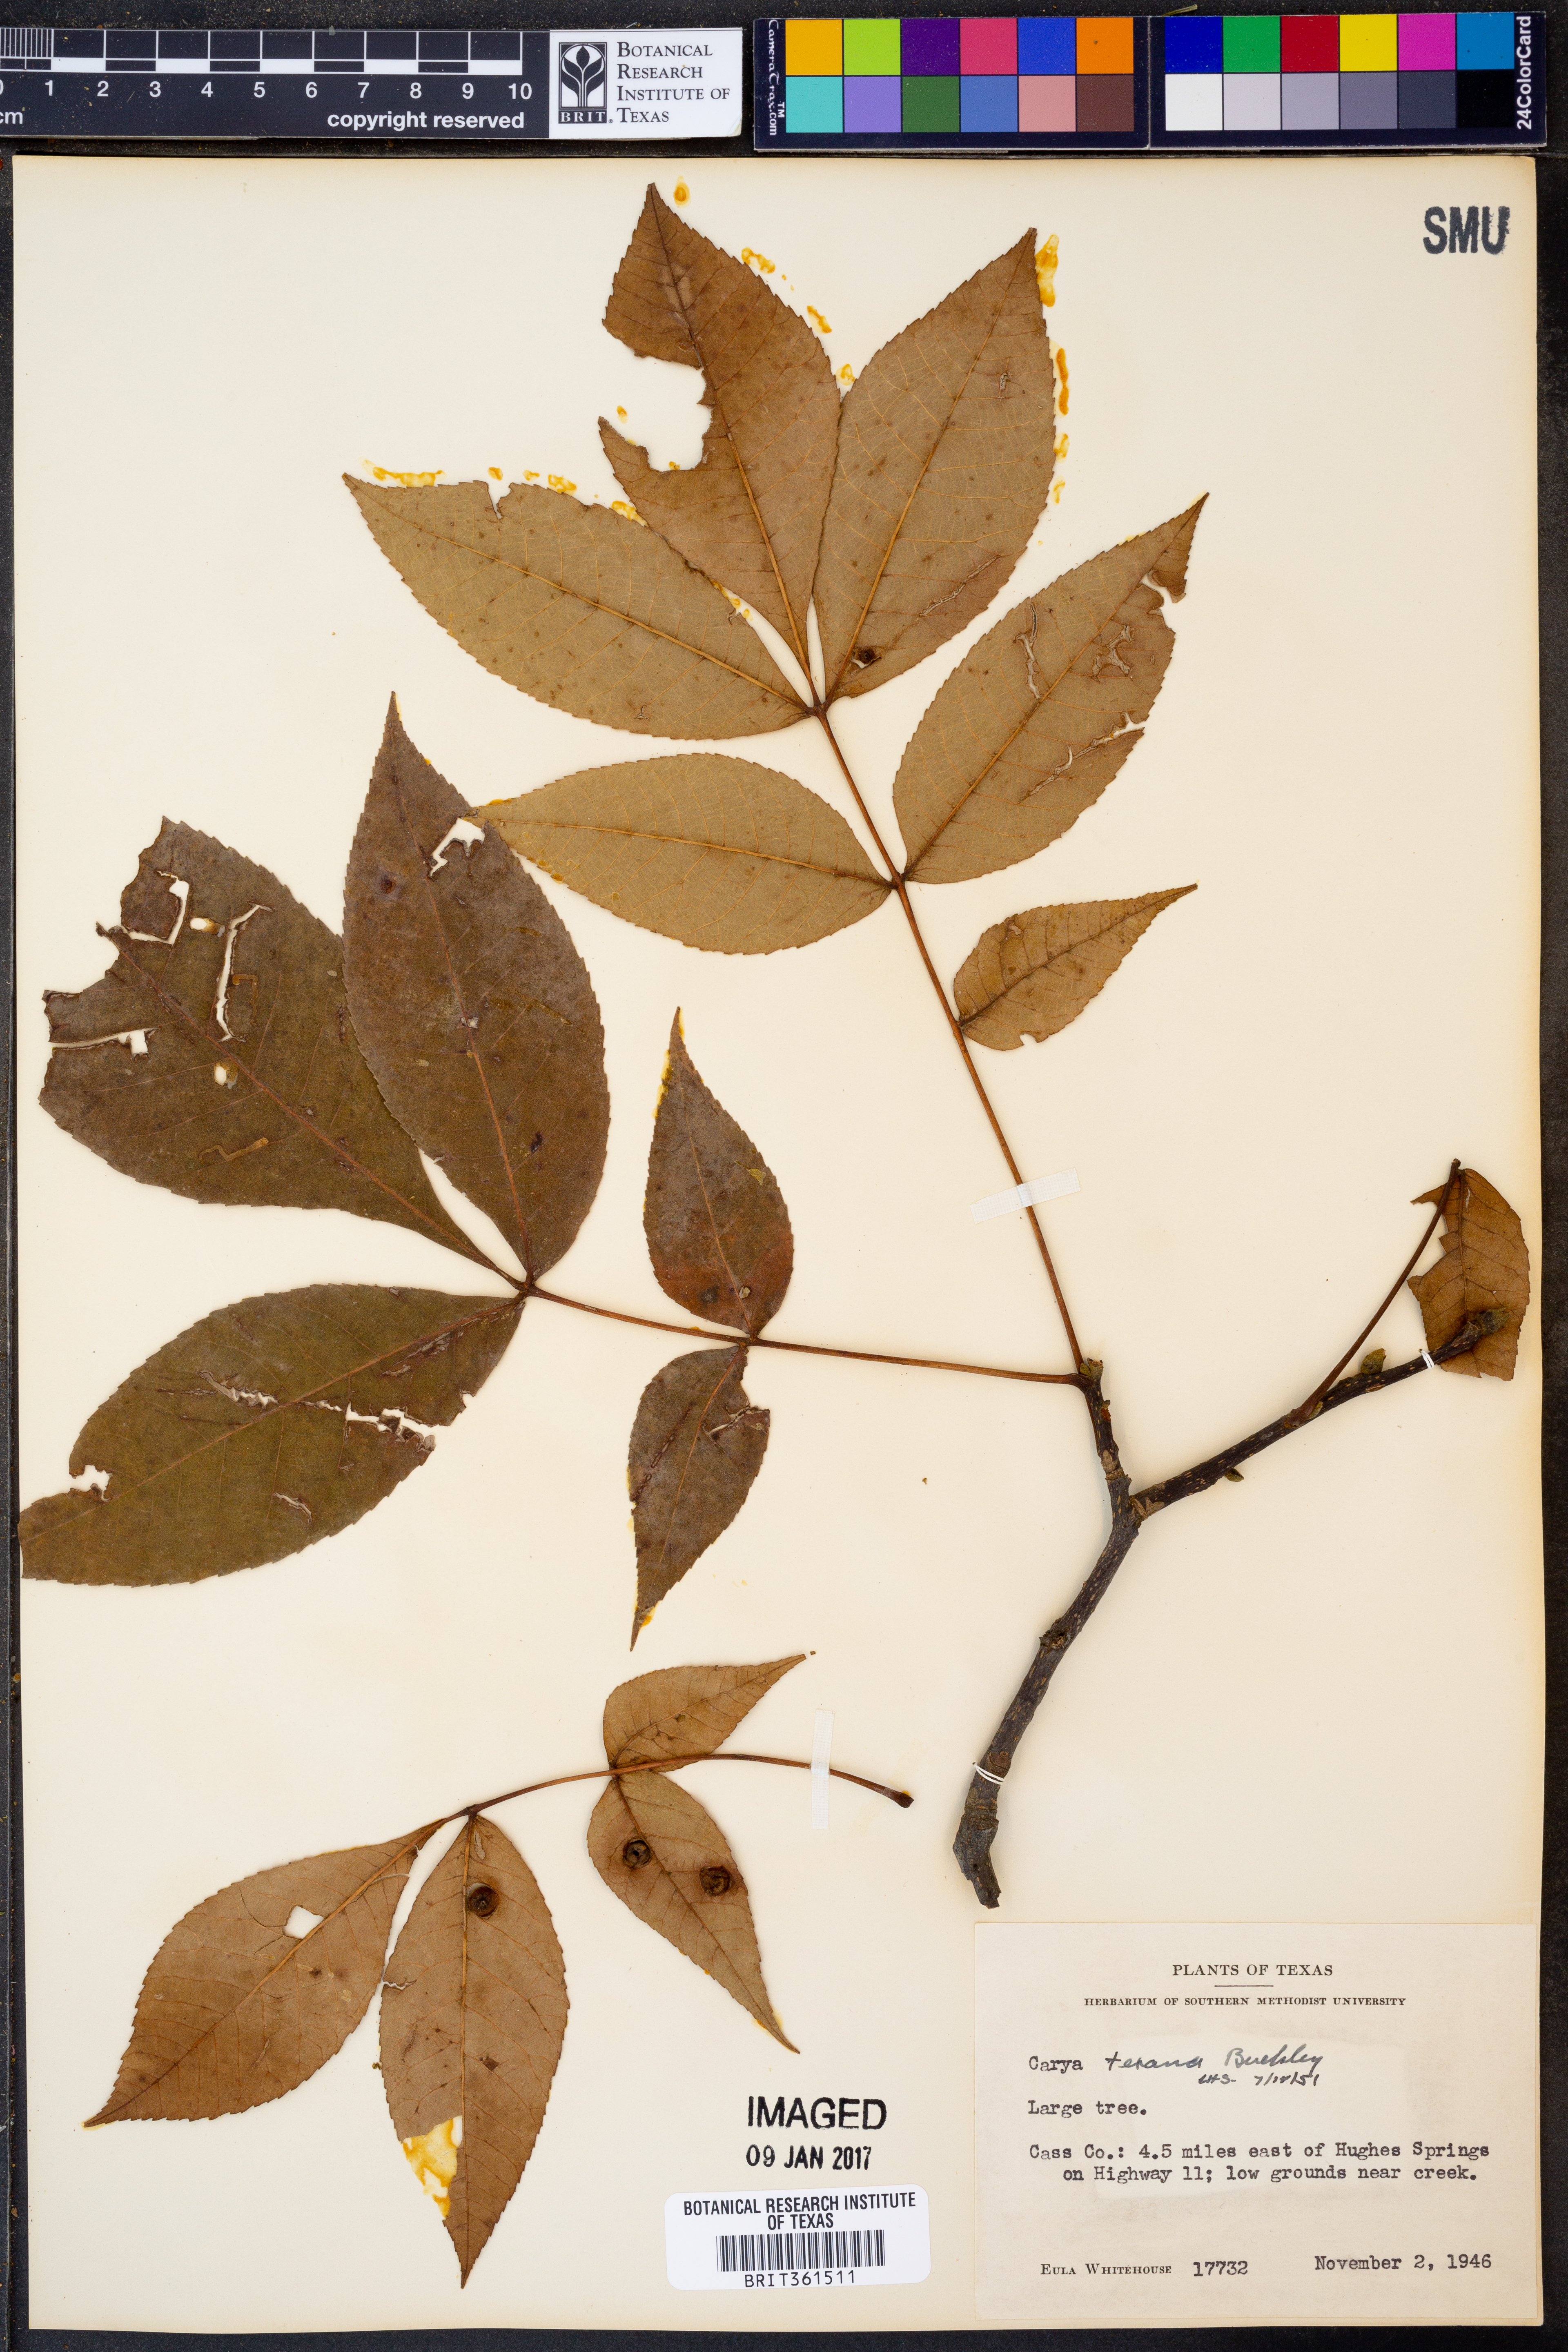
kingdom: Plantae
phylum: Tracheophyta
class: Magnoliopsida
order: Fagales
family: Juglandaceae
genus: Carya
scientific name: Carya texana
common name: Black hickory
